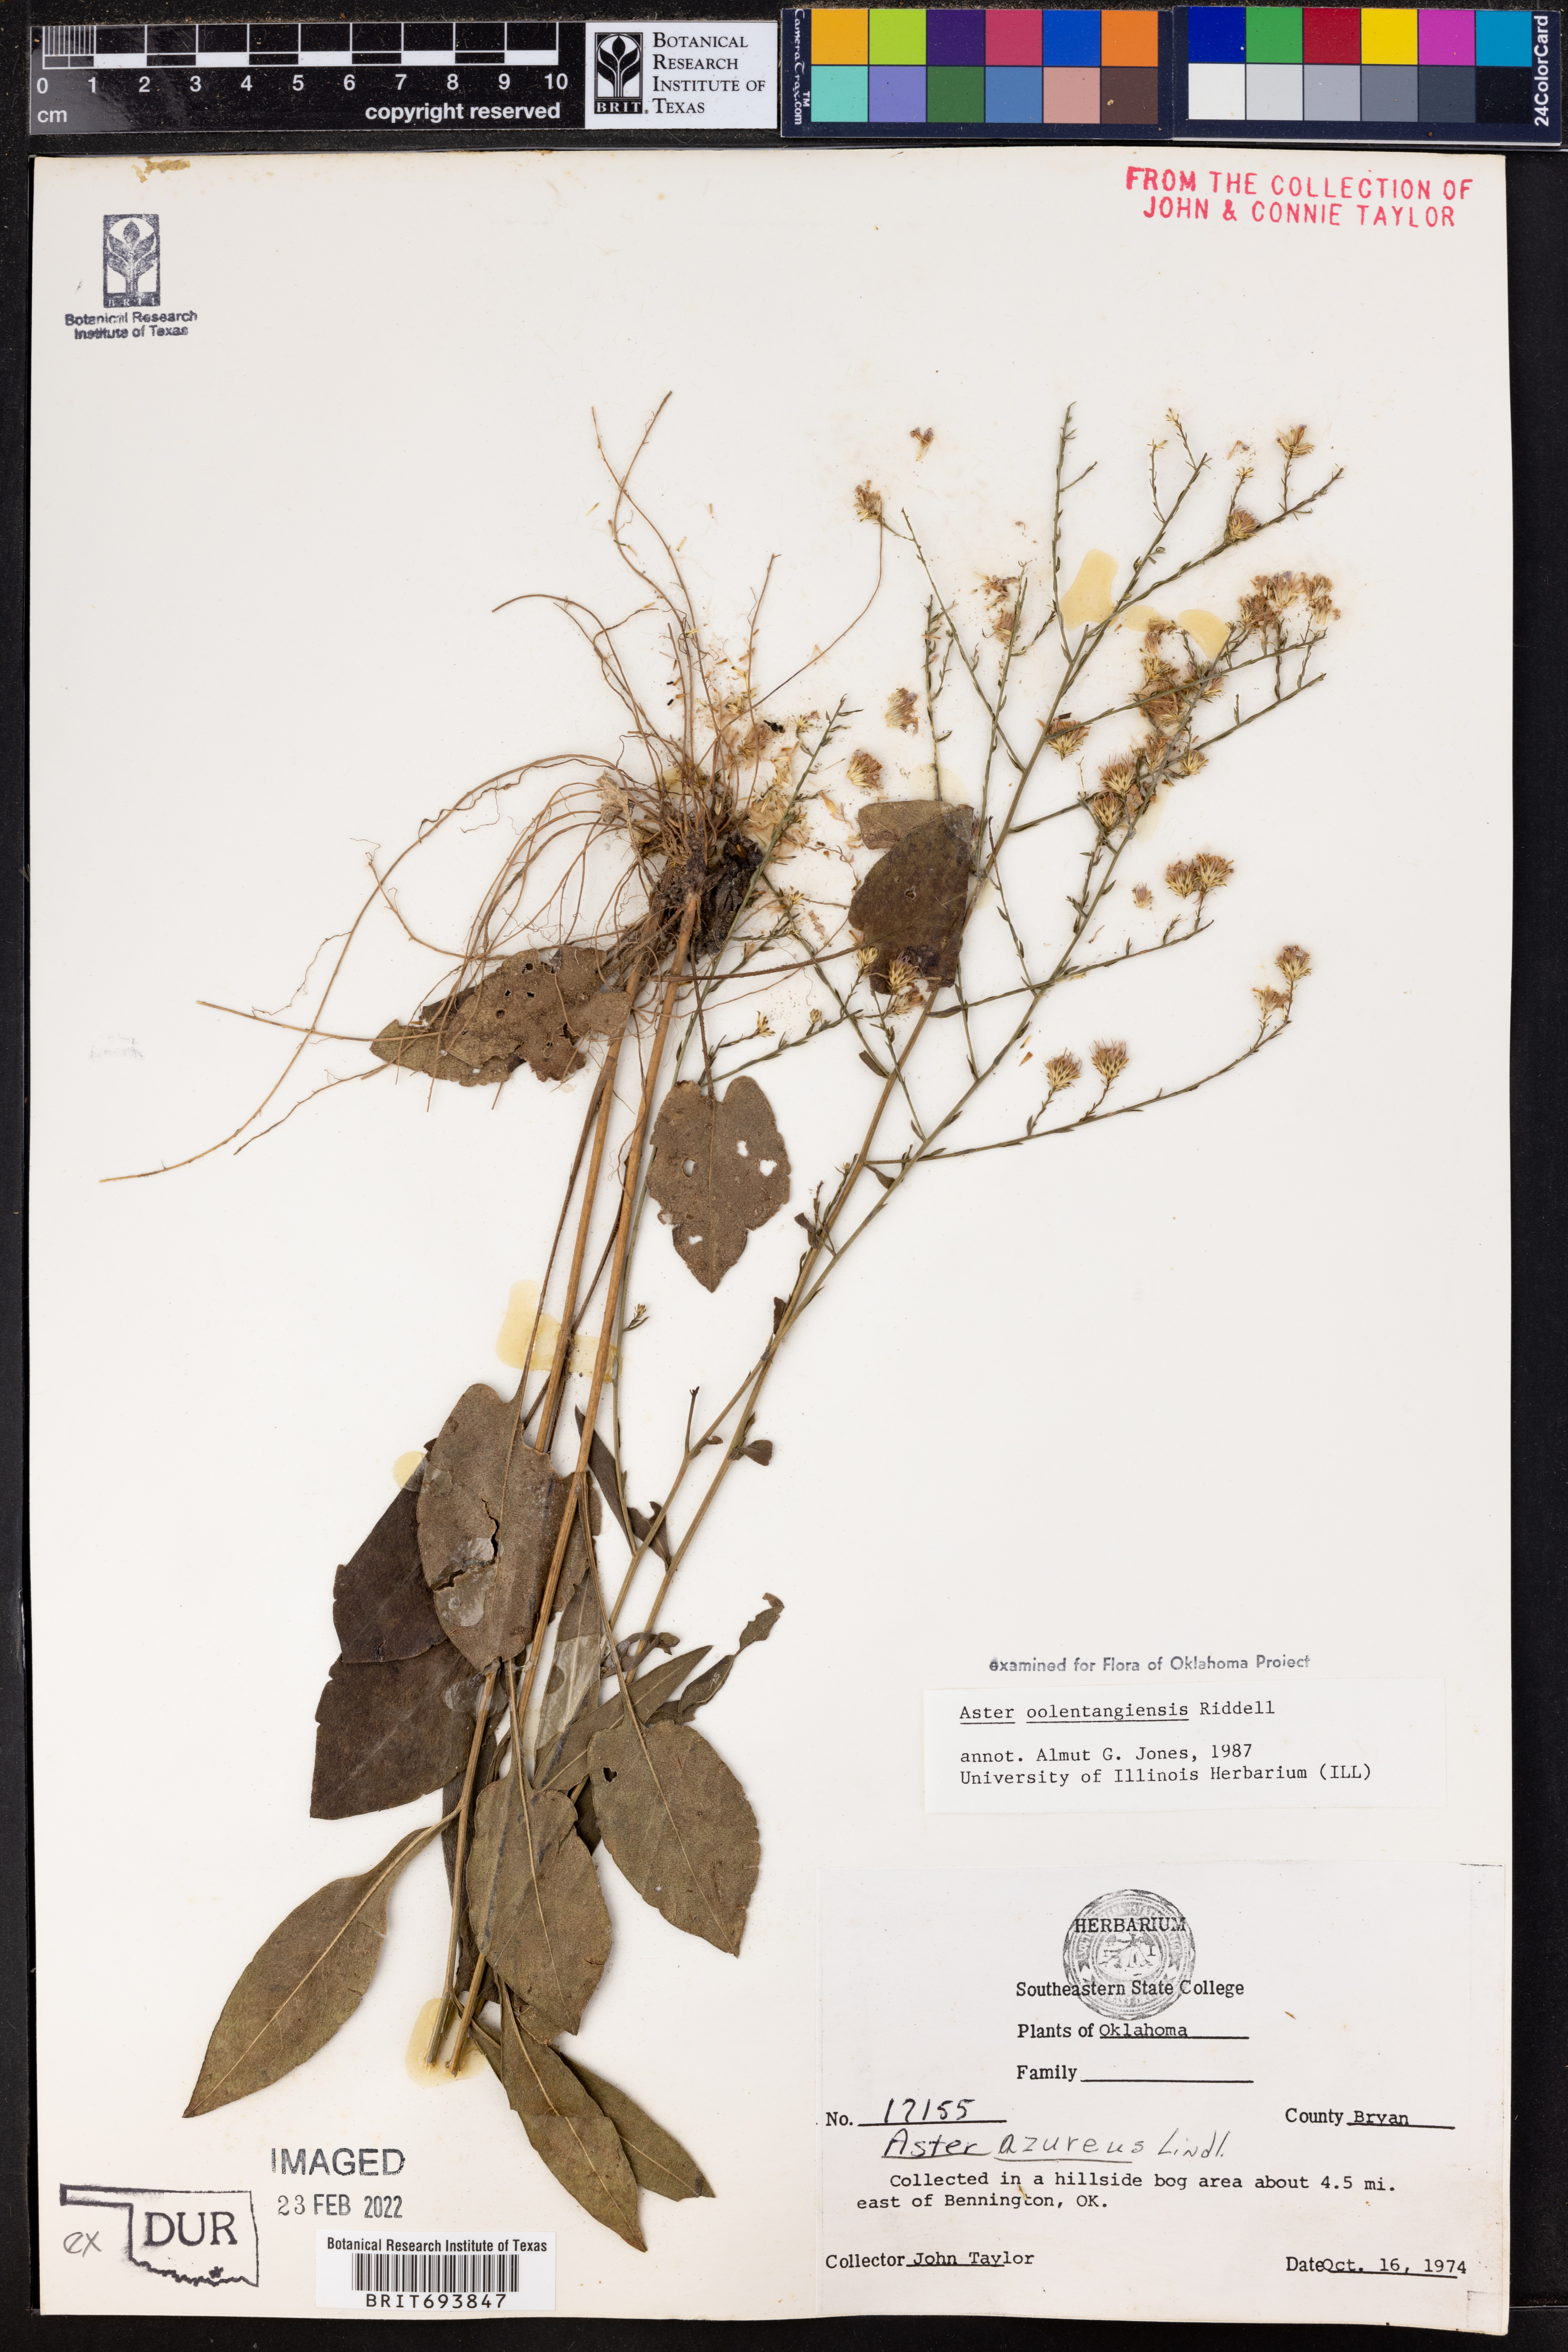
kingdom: Plantae
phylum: Tracheophyta
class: Magnoliopsida
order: Asterales
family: Asteraceae
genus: Symphyotrichum
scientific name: Symphyotrichum oolentangiense
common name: Azure aster
